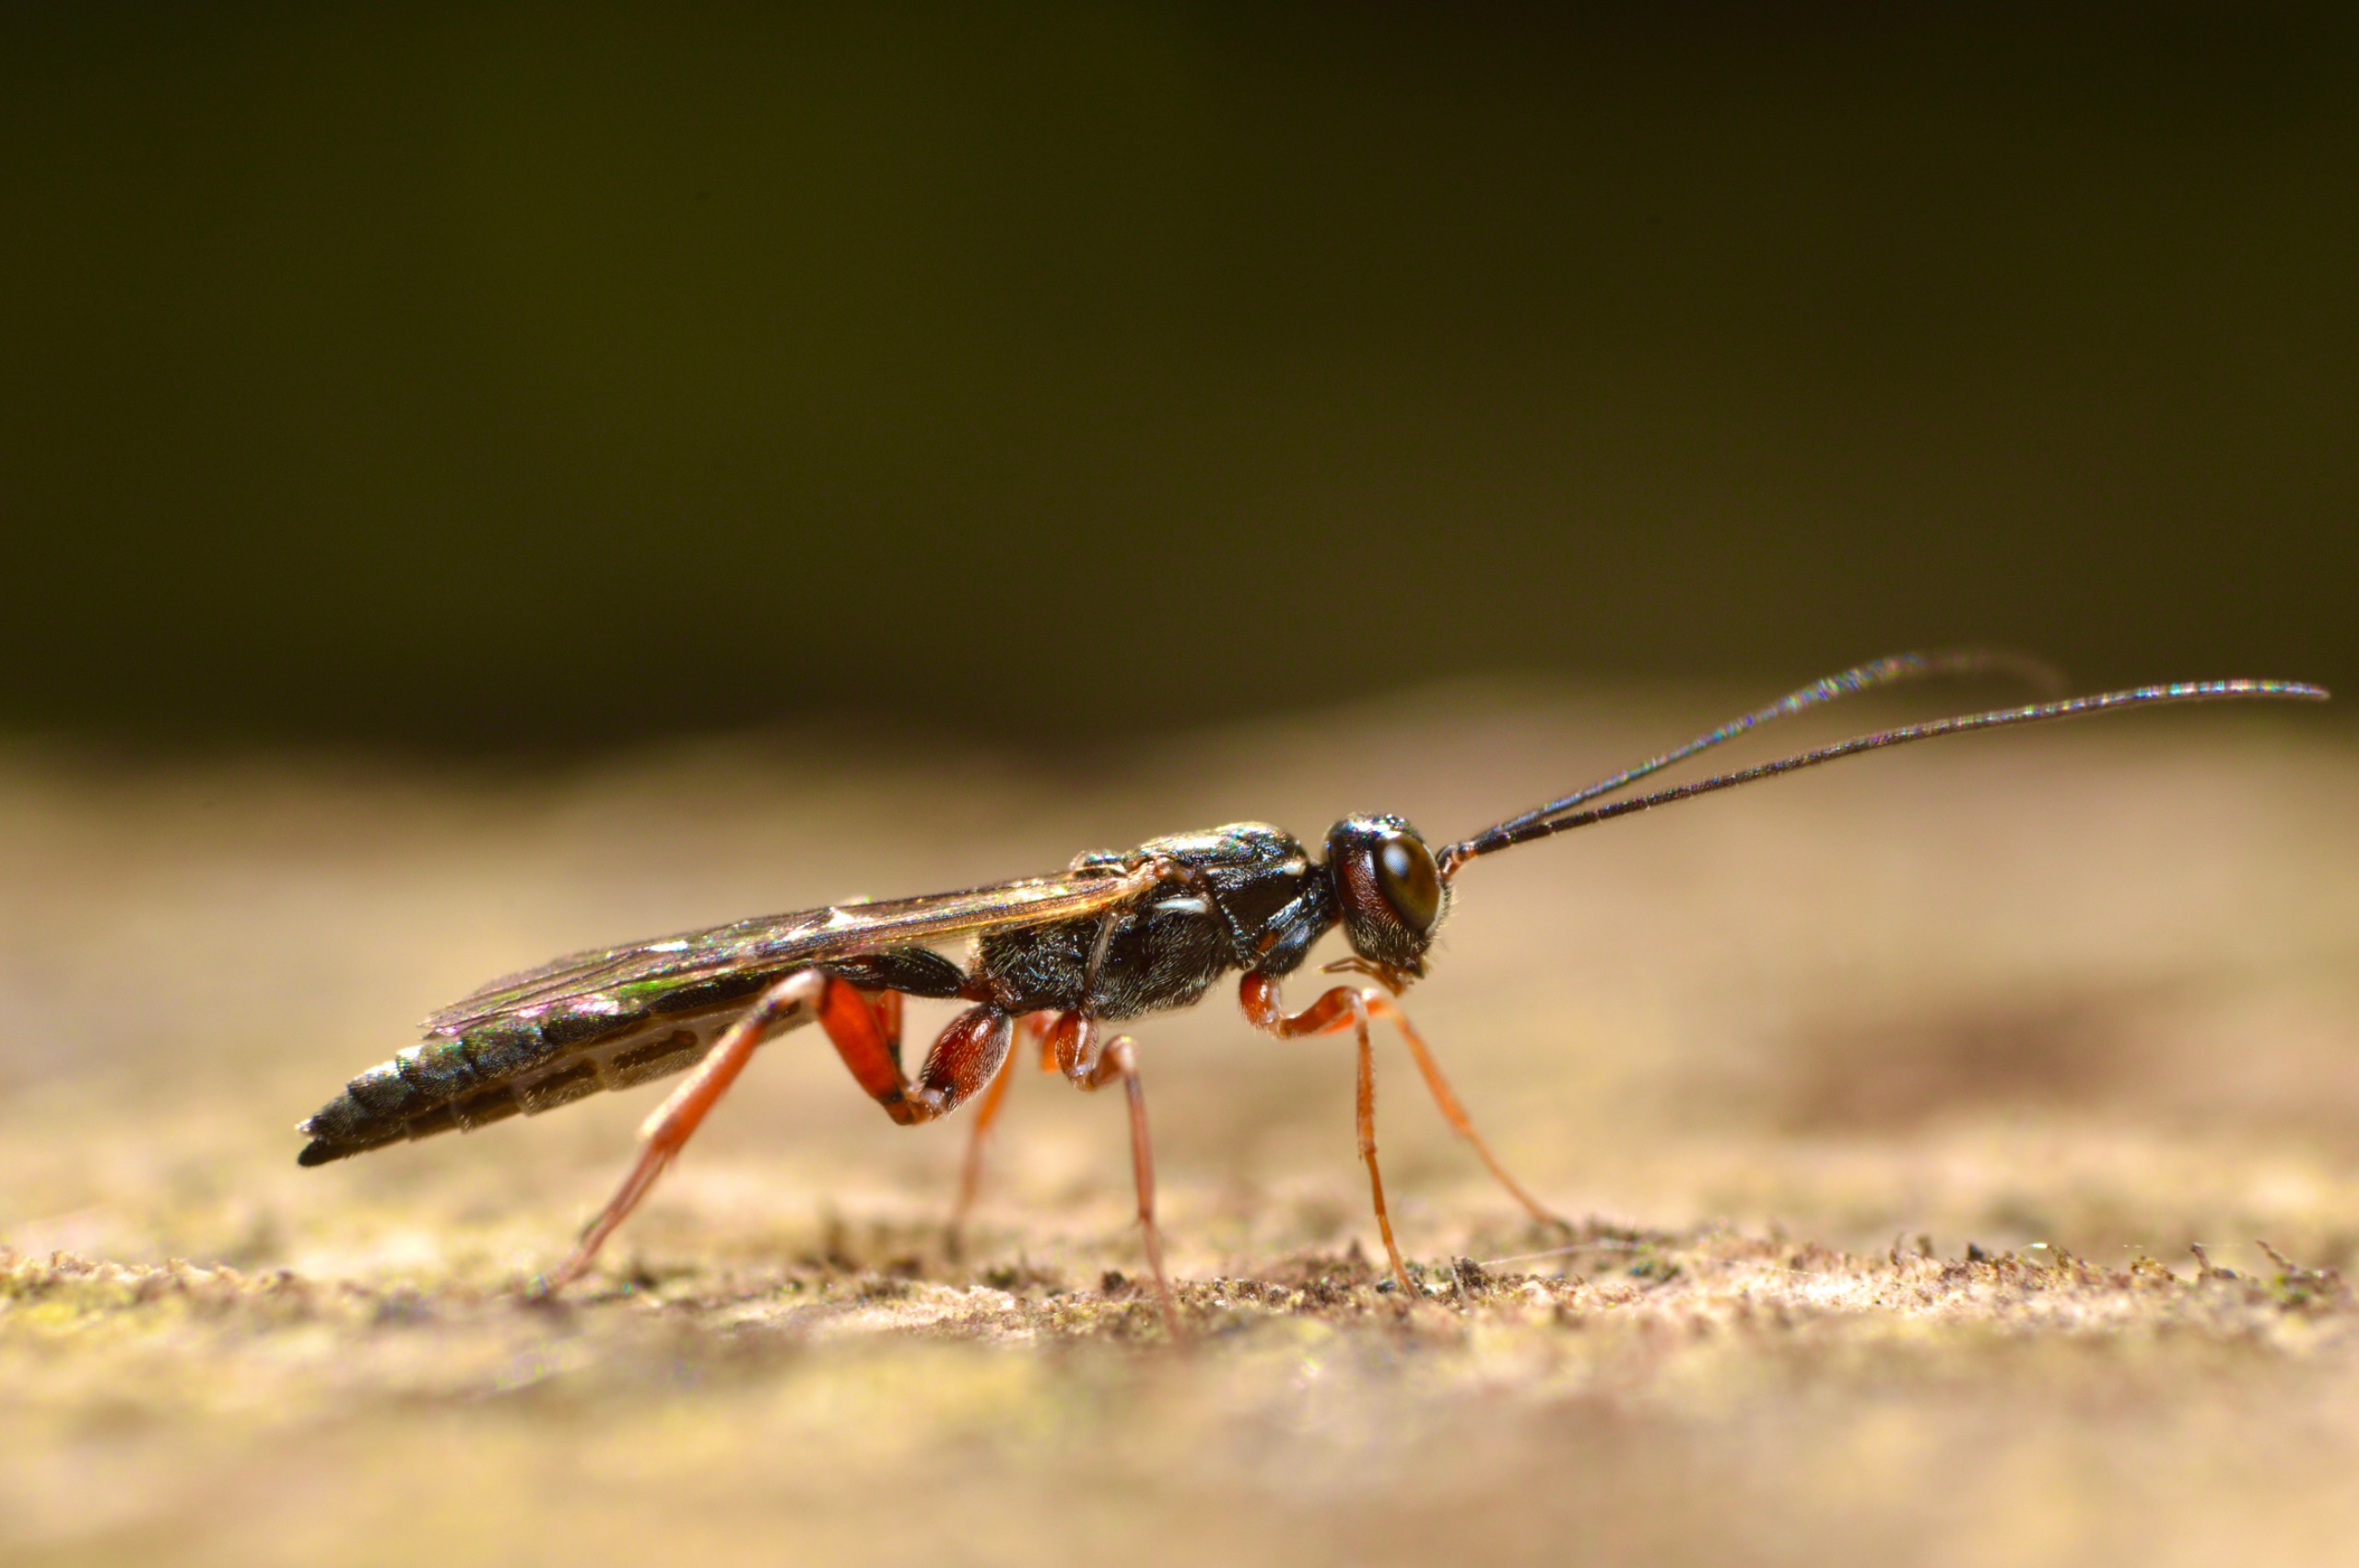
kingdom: Animalia
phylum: Arthropoda
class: Insecta
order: Hymenoptera
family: Ichneumonidae
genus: Xorides
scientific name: Xorides praecatorius
